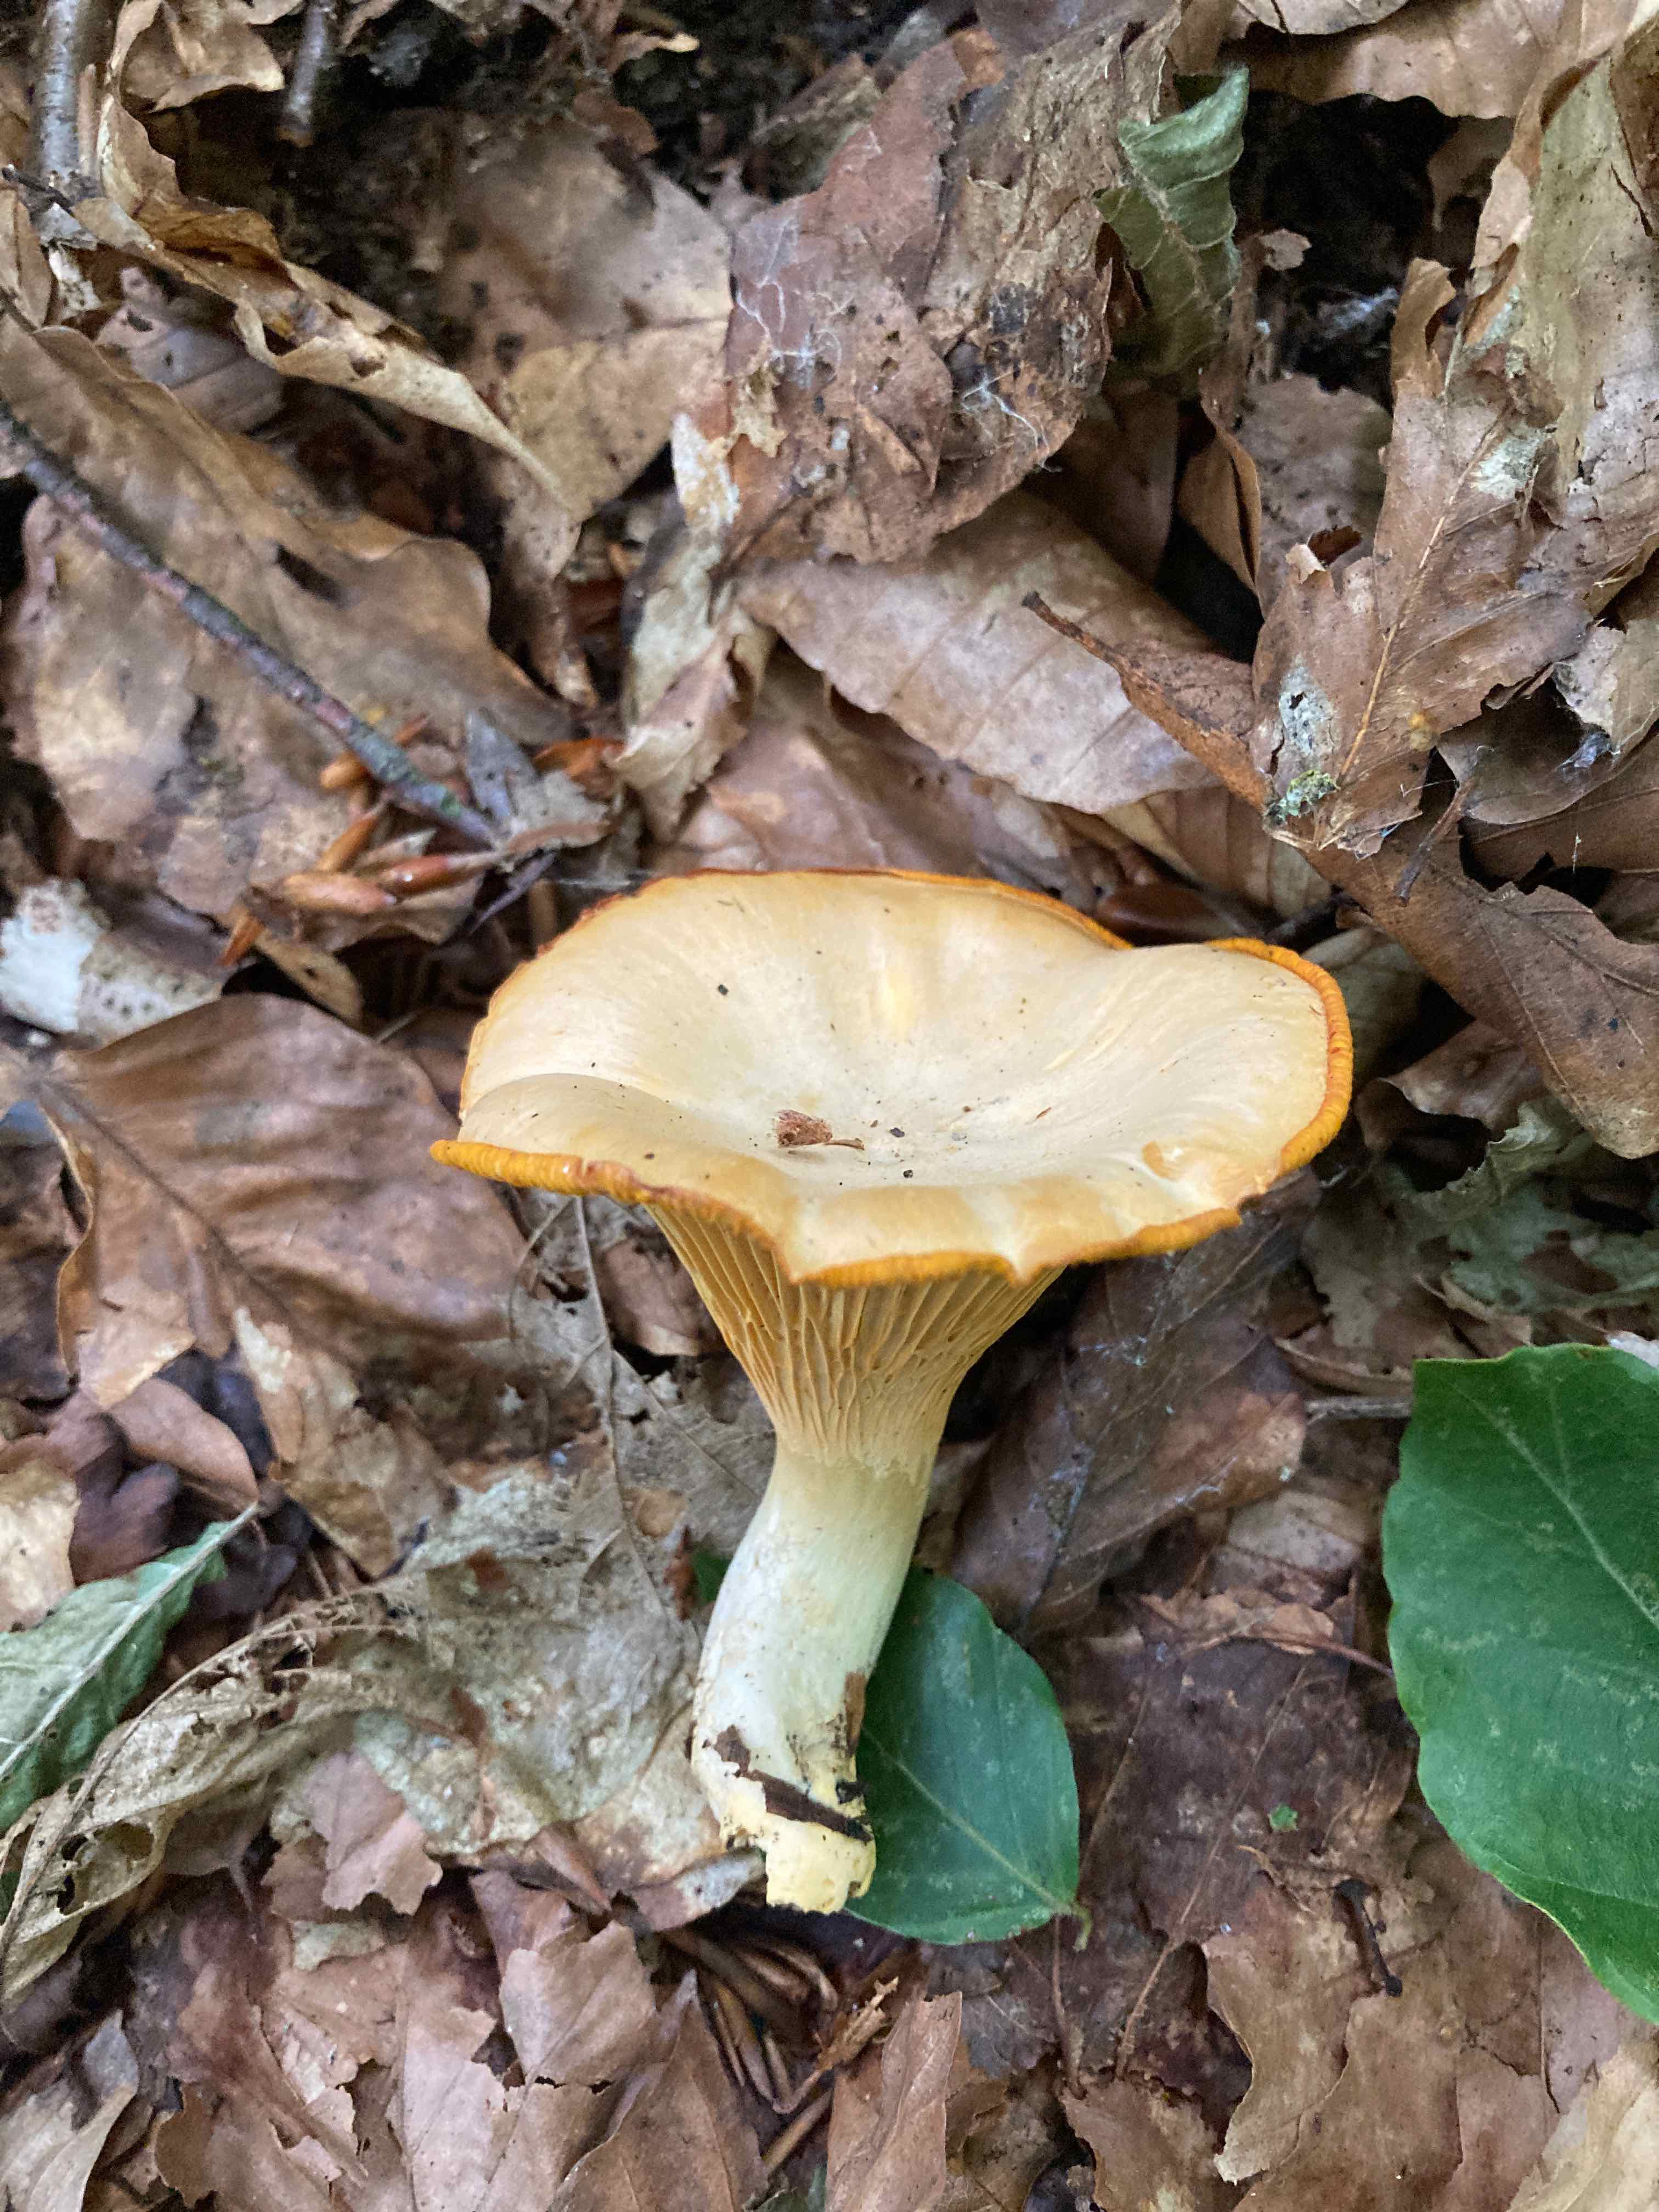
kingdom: Fungi
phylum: Basidiomycota
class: Agaricomycetes
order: Cantharellales
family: Hydnaceae
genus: Cantharellus
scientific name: Cantharellus pallens
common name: bleg kantarel
